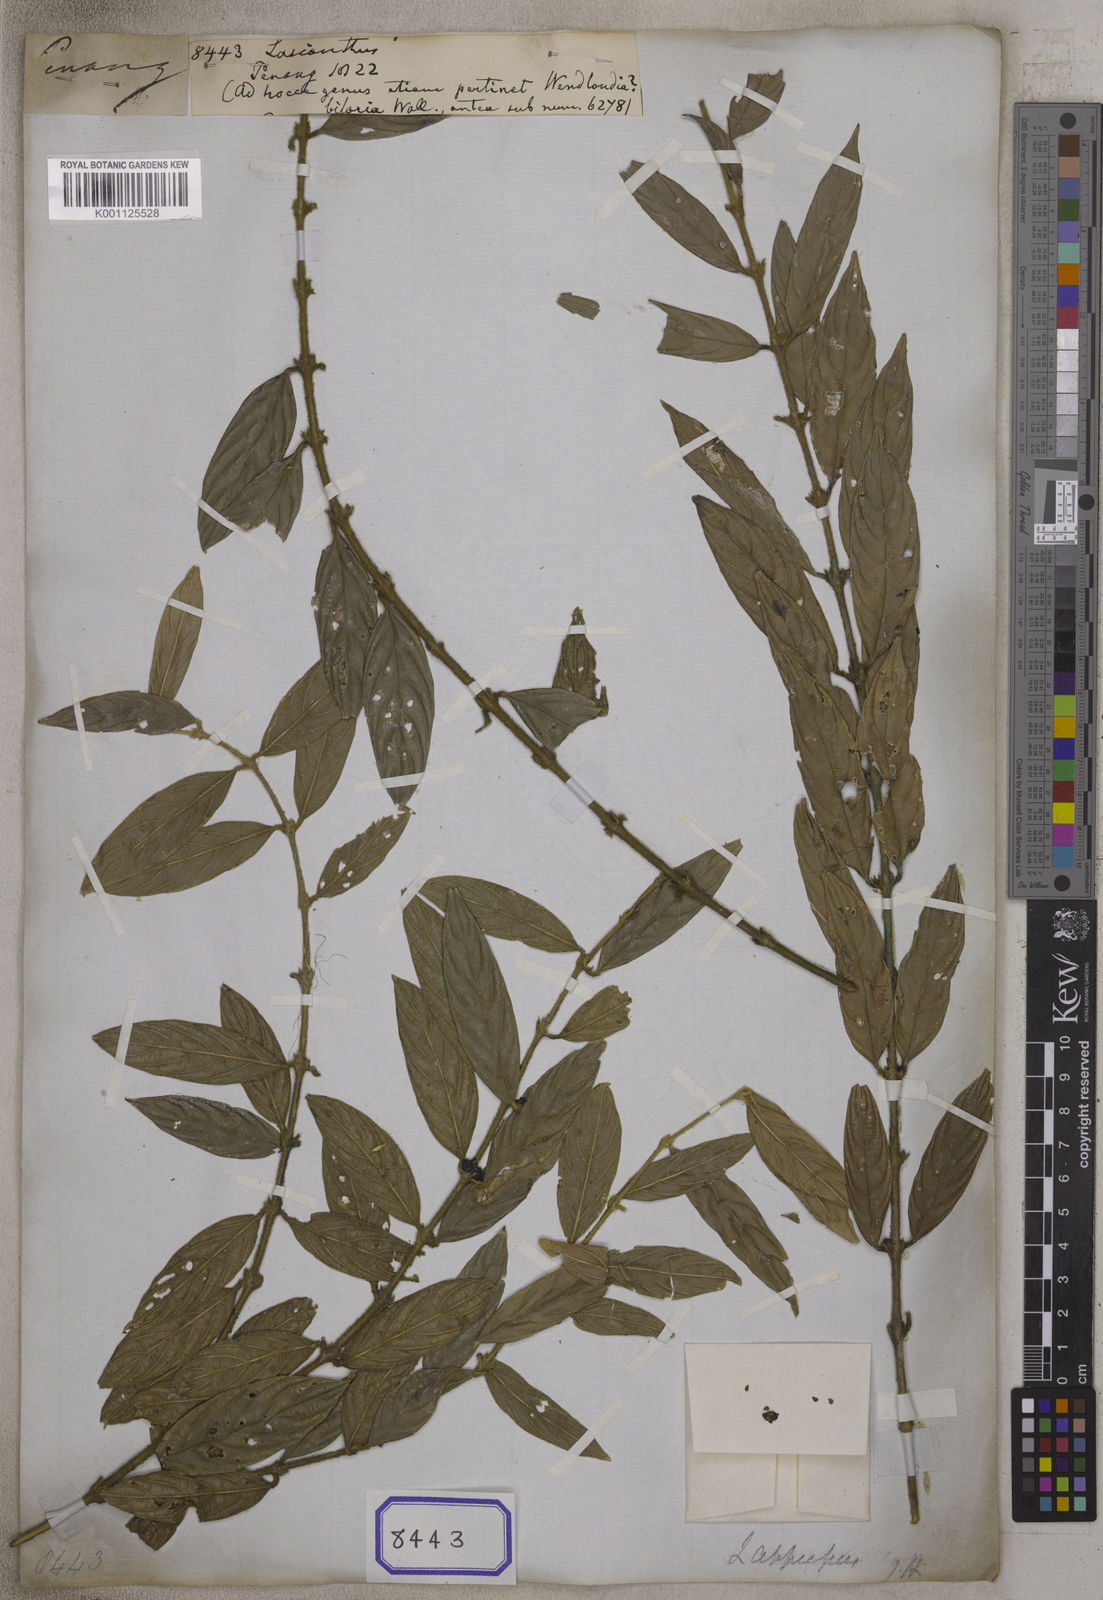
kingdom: Plantae
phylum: Tracheophyta
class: Magnoliopsida
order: Gentianales
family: Rubiaceae
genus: Lasianthus
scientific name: Lasianthus
